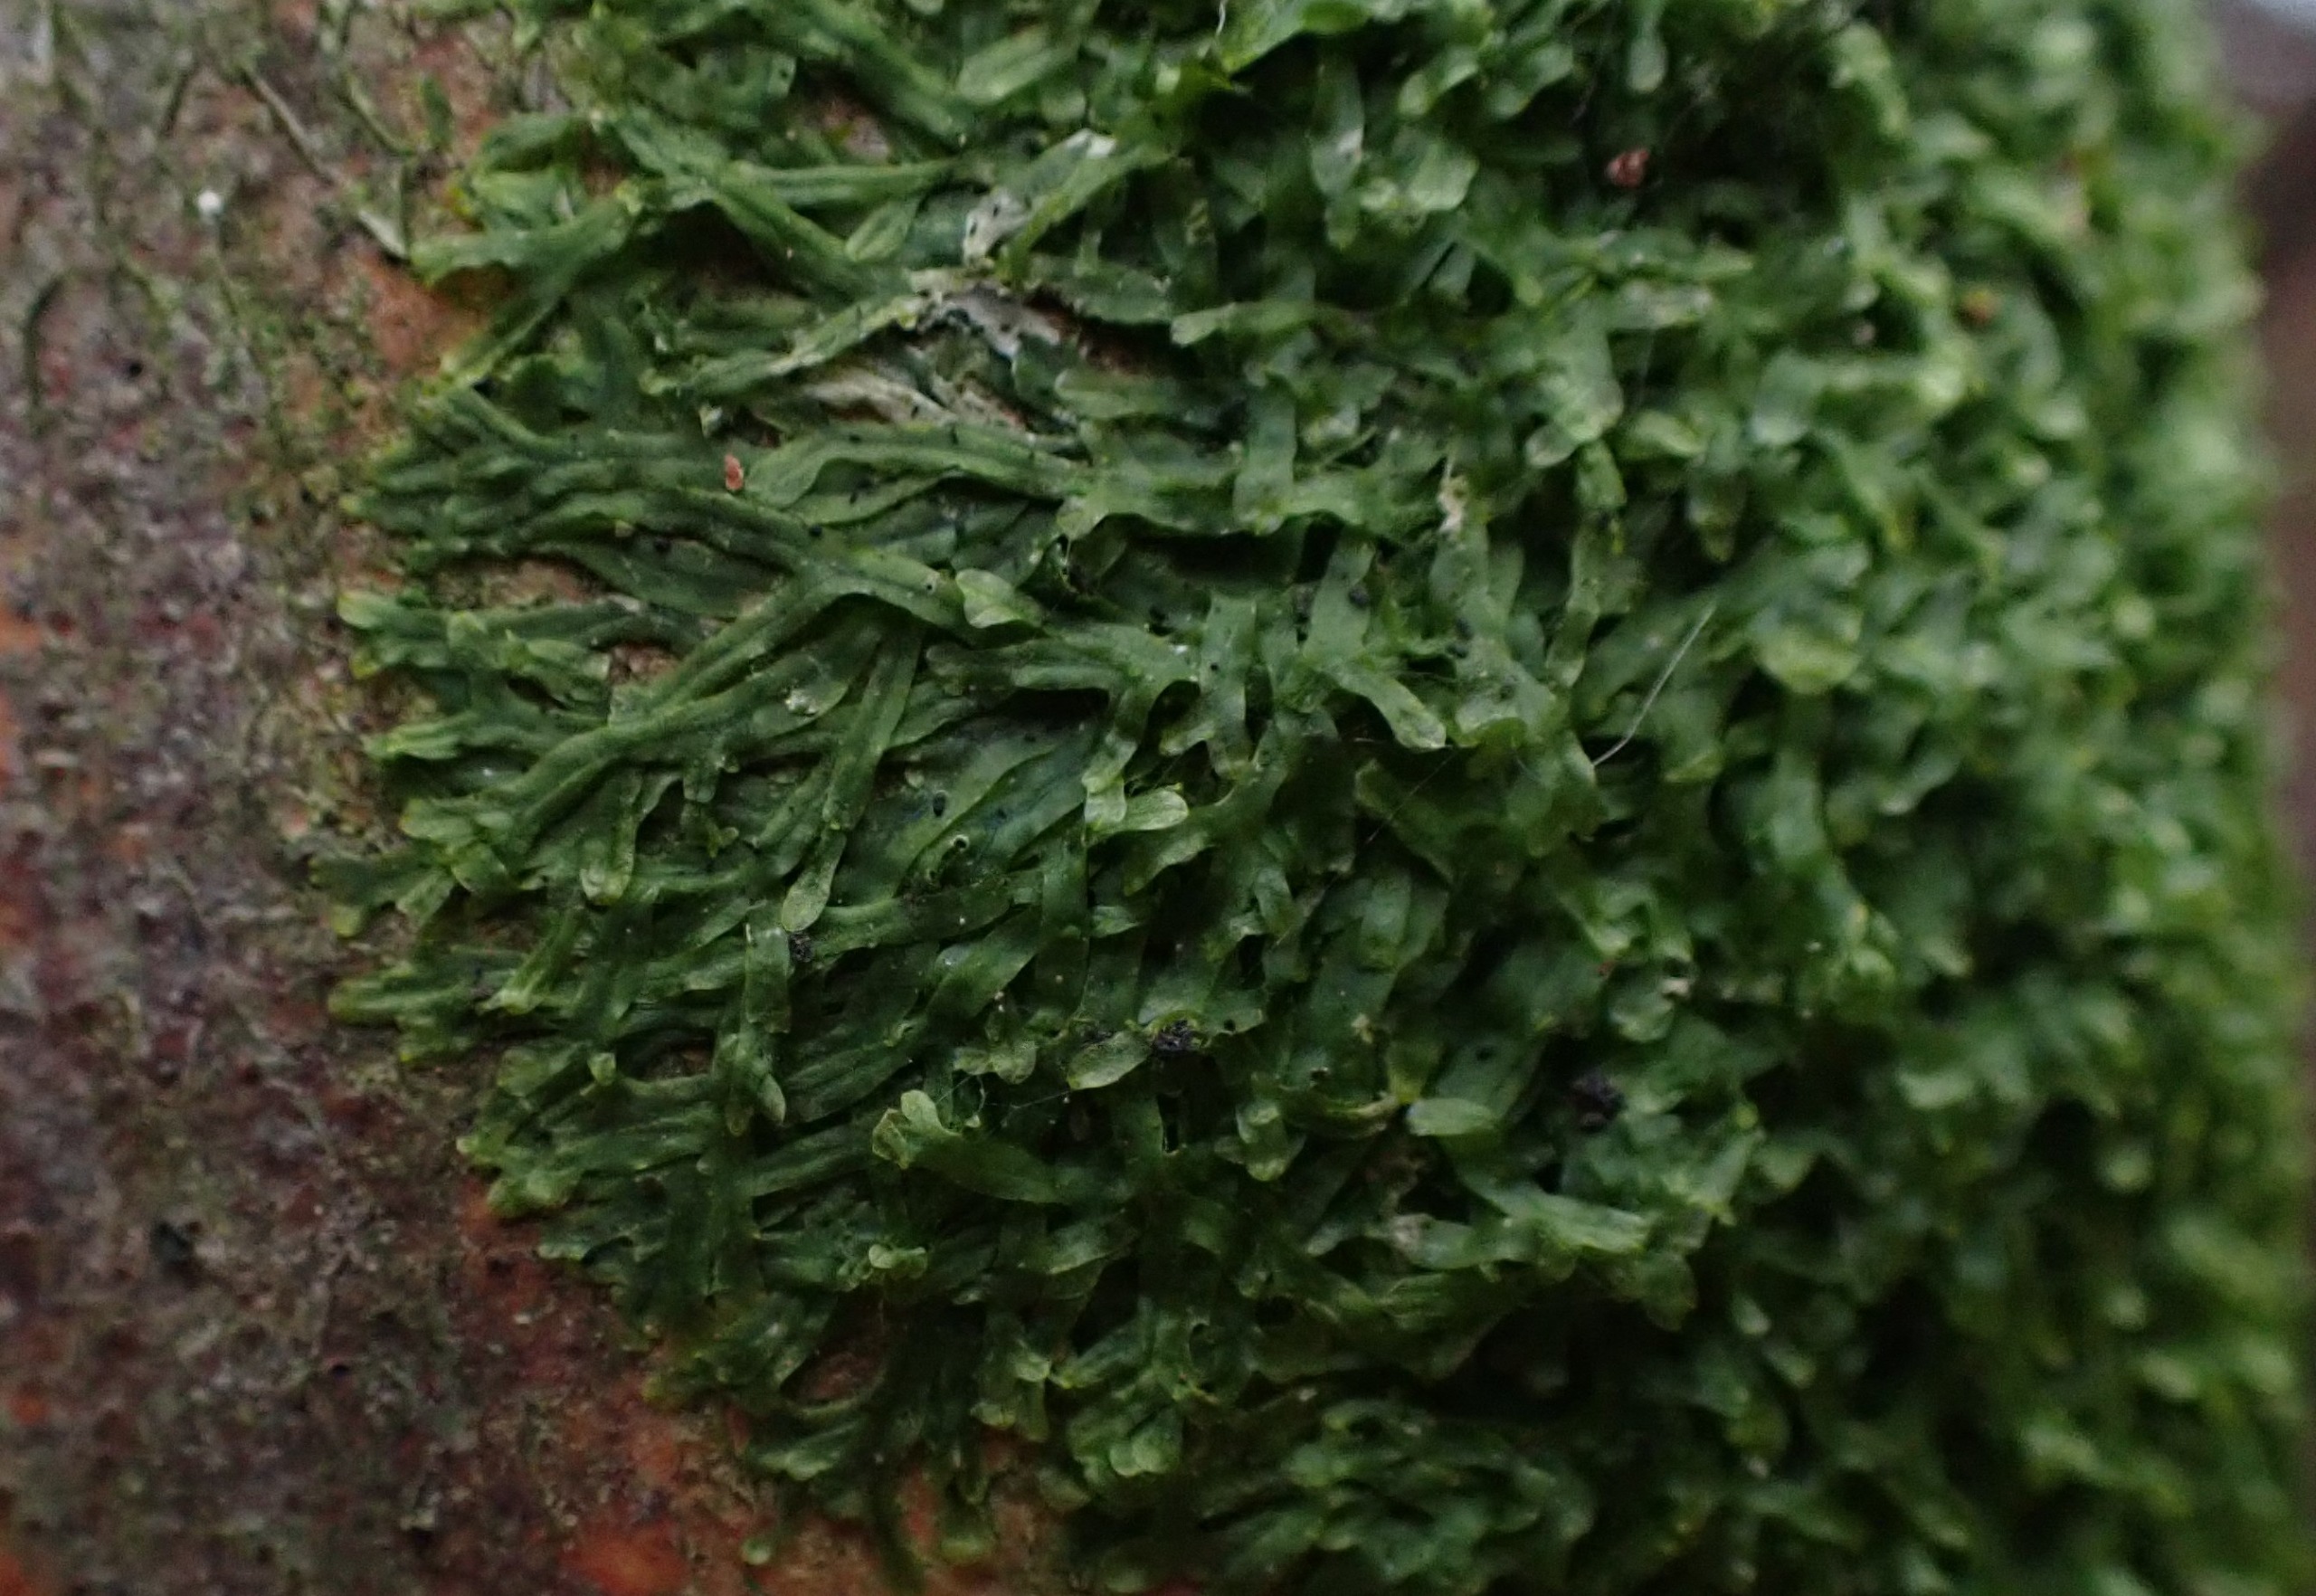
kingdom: Plantae
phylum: Marchantiophyta
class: Jungermanniopsida
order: Metzgeriales
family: Metzgeriaceae
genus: Metzgeria
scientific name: Metzgeria furcata
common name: Almindelig gaffelløv
